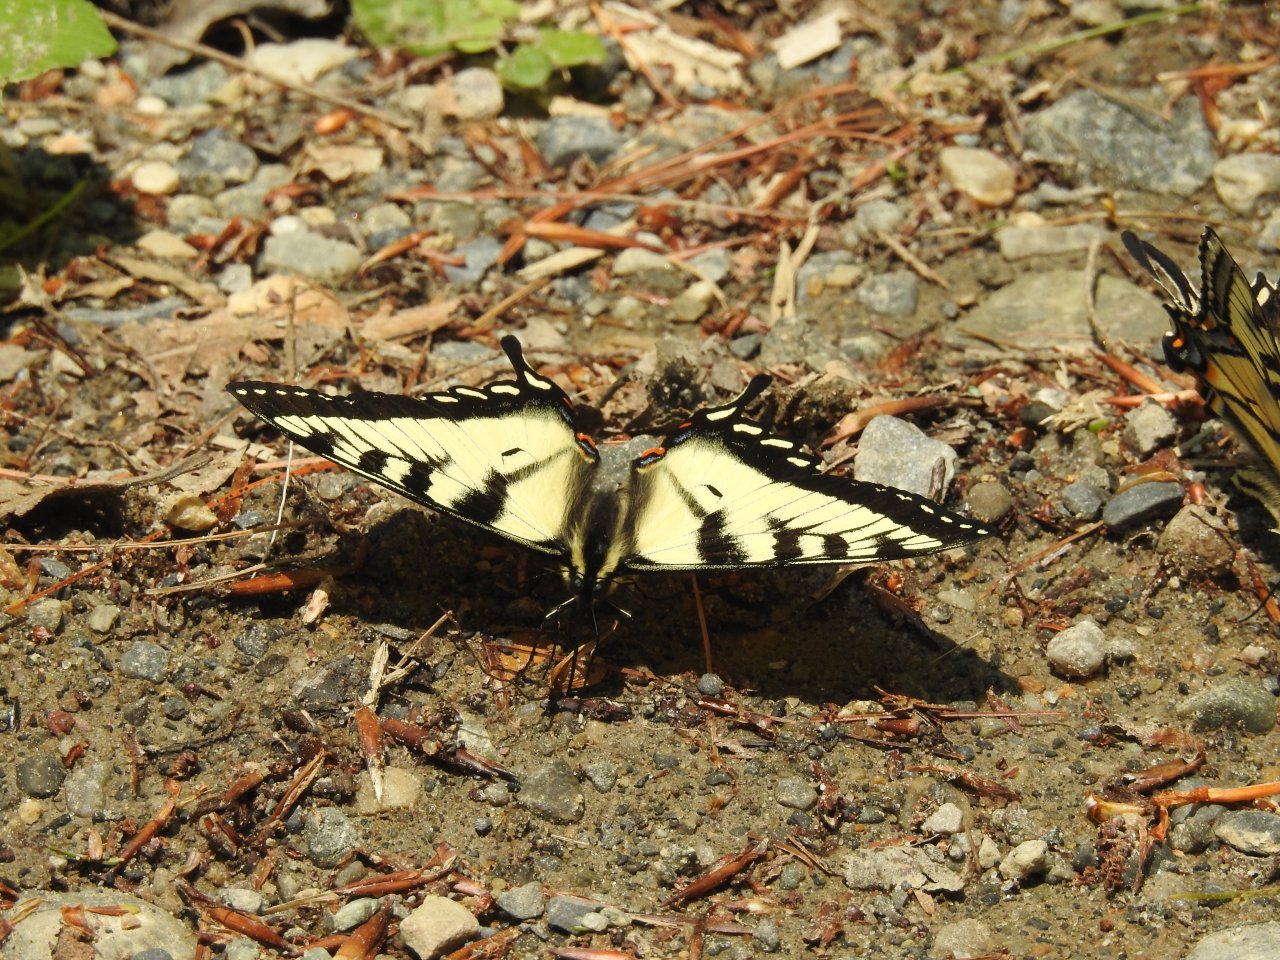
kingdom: Animalia
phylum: Arthropoda
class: Insecta
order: Lepidoptera
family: Papilionidae
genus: Pterourus
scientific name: Pterourus canadensis
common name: Canadian Tiger Swallowtail
